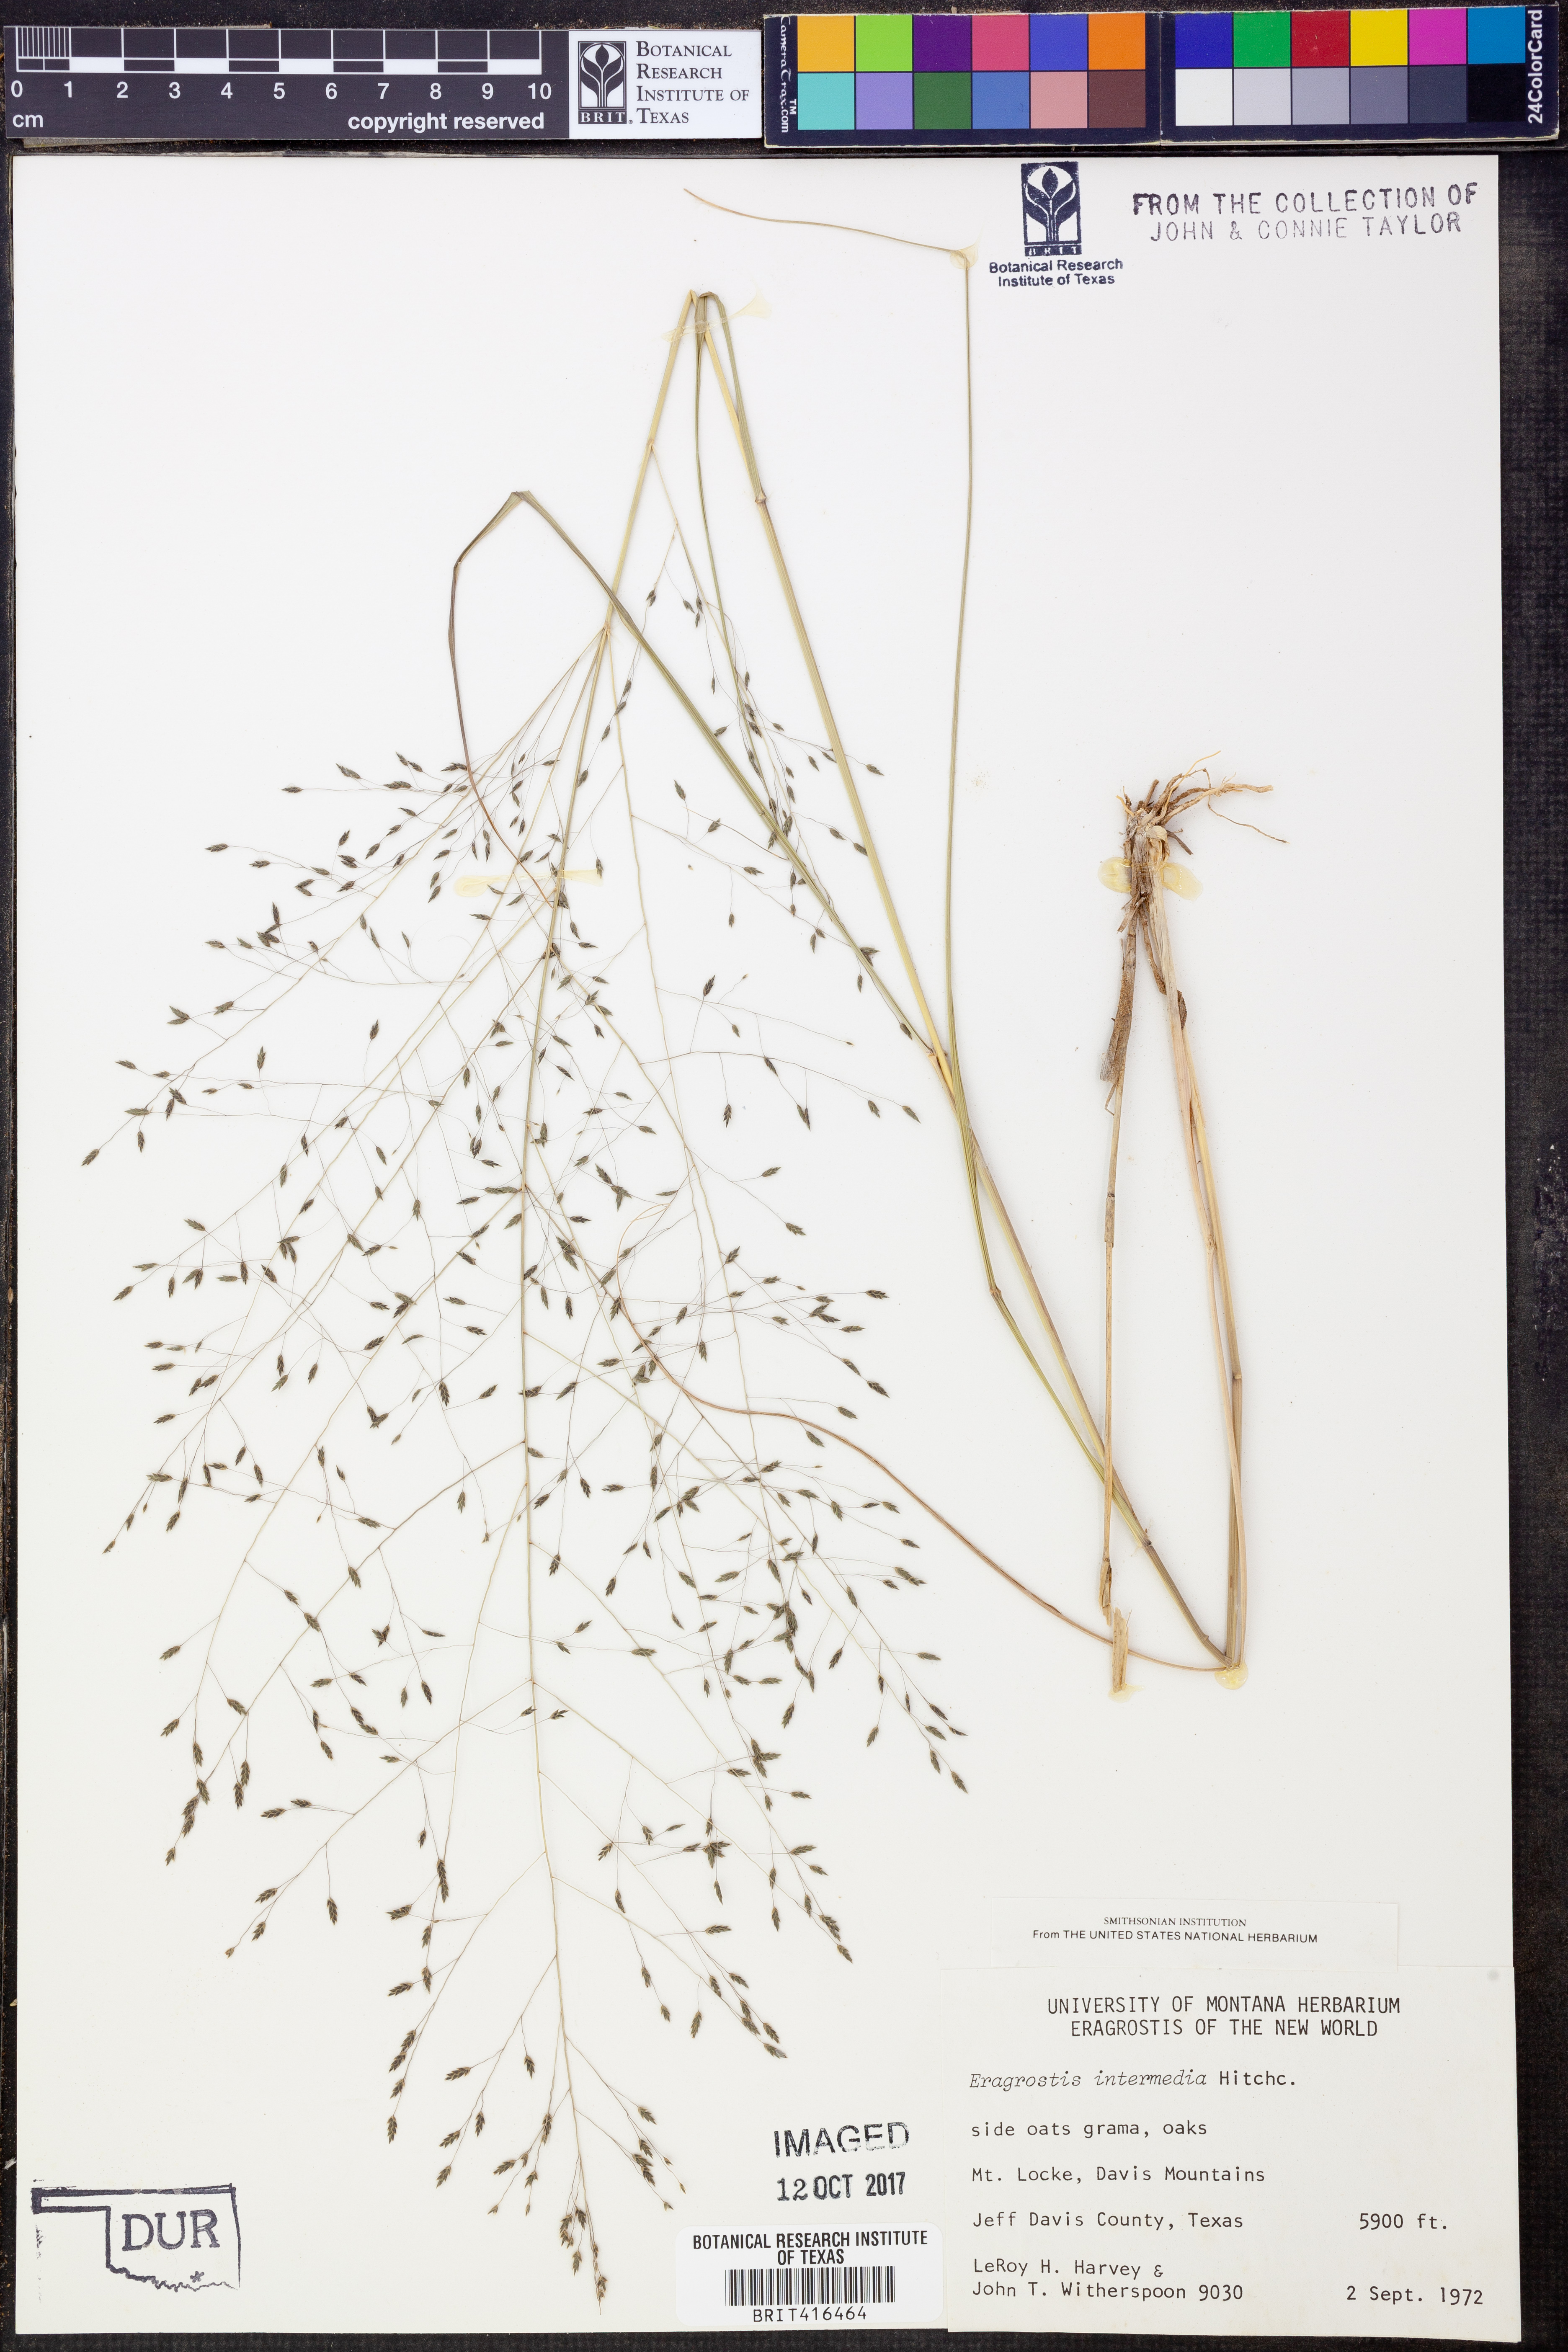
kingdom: Plantae
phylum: Tracheophyta
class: Liliopsida
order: Poales
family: Poaceae
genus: Eragrostis
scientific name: Eragrostis intermedia
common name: Plains love grass
